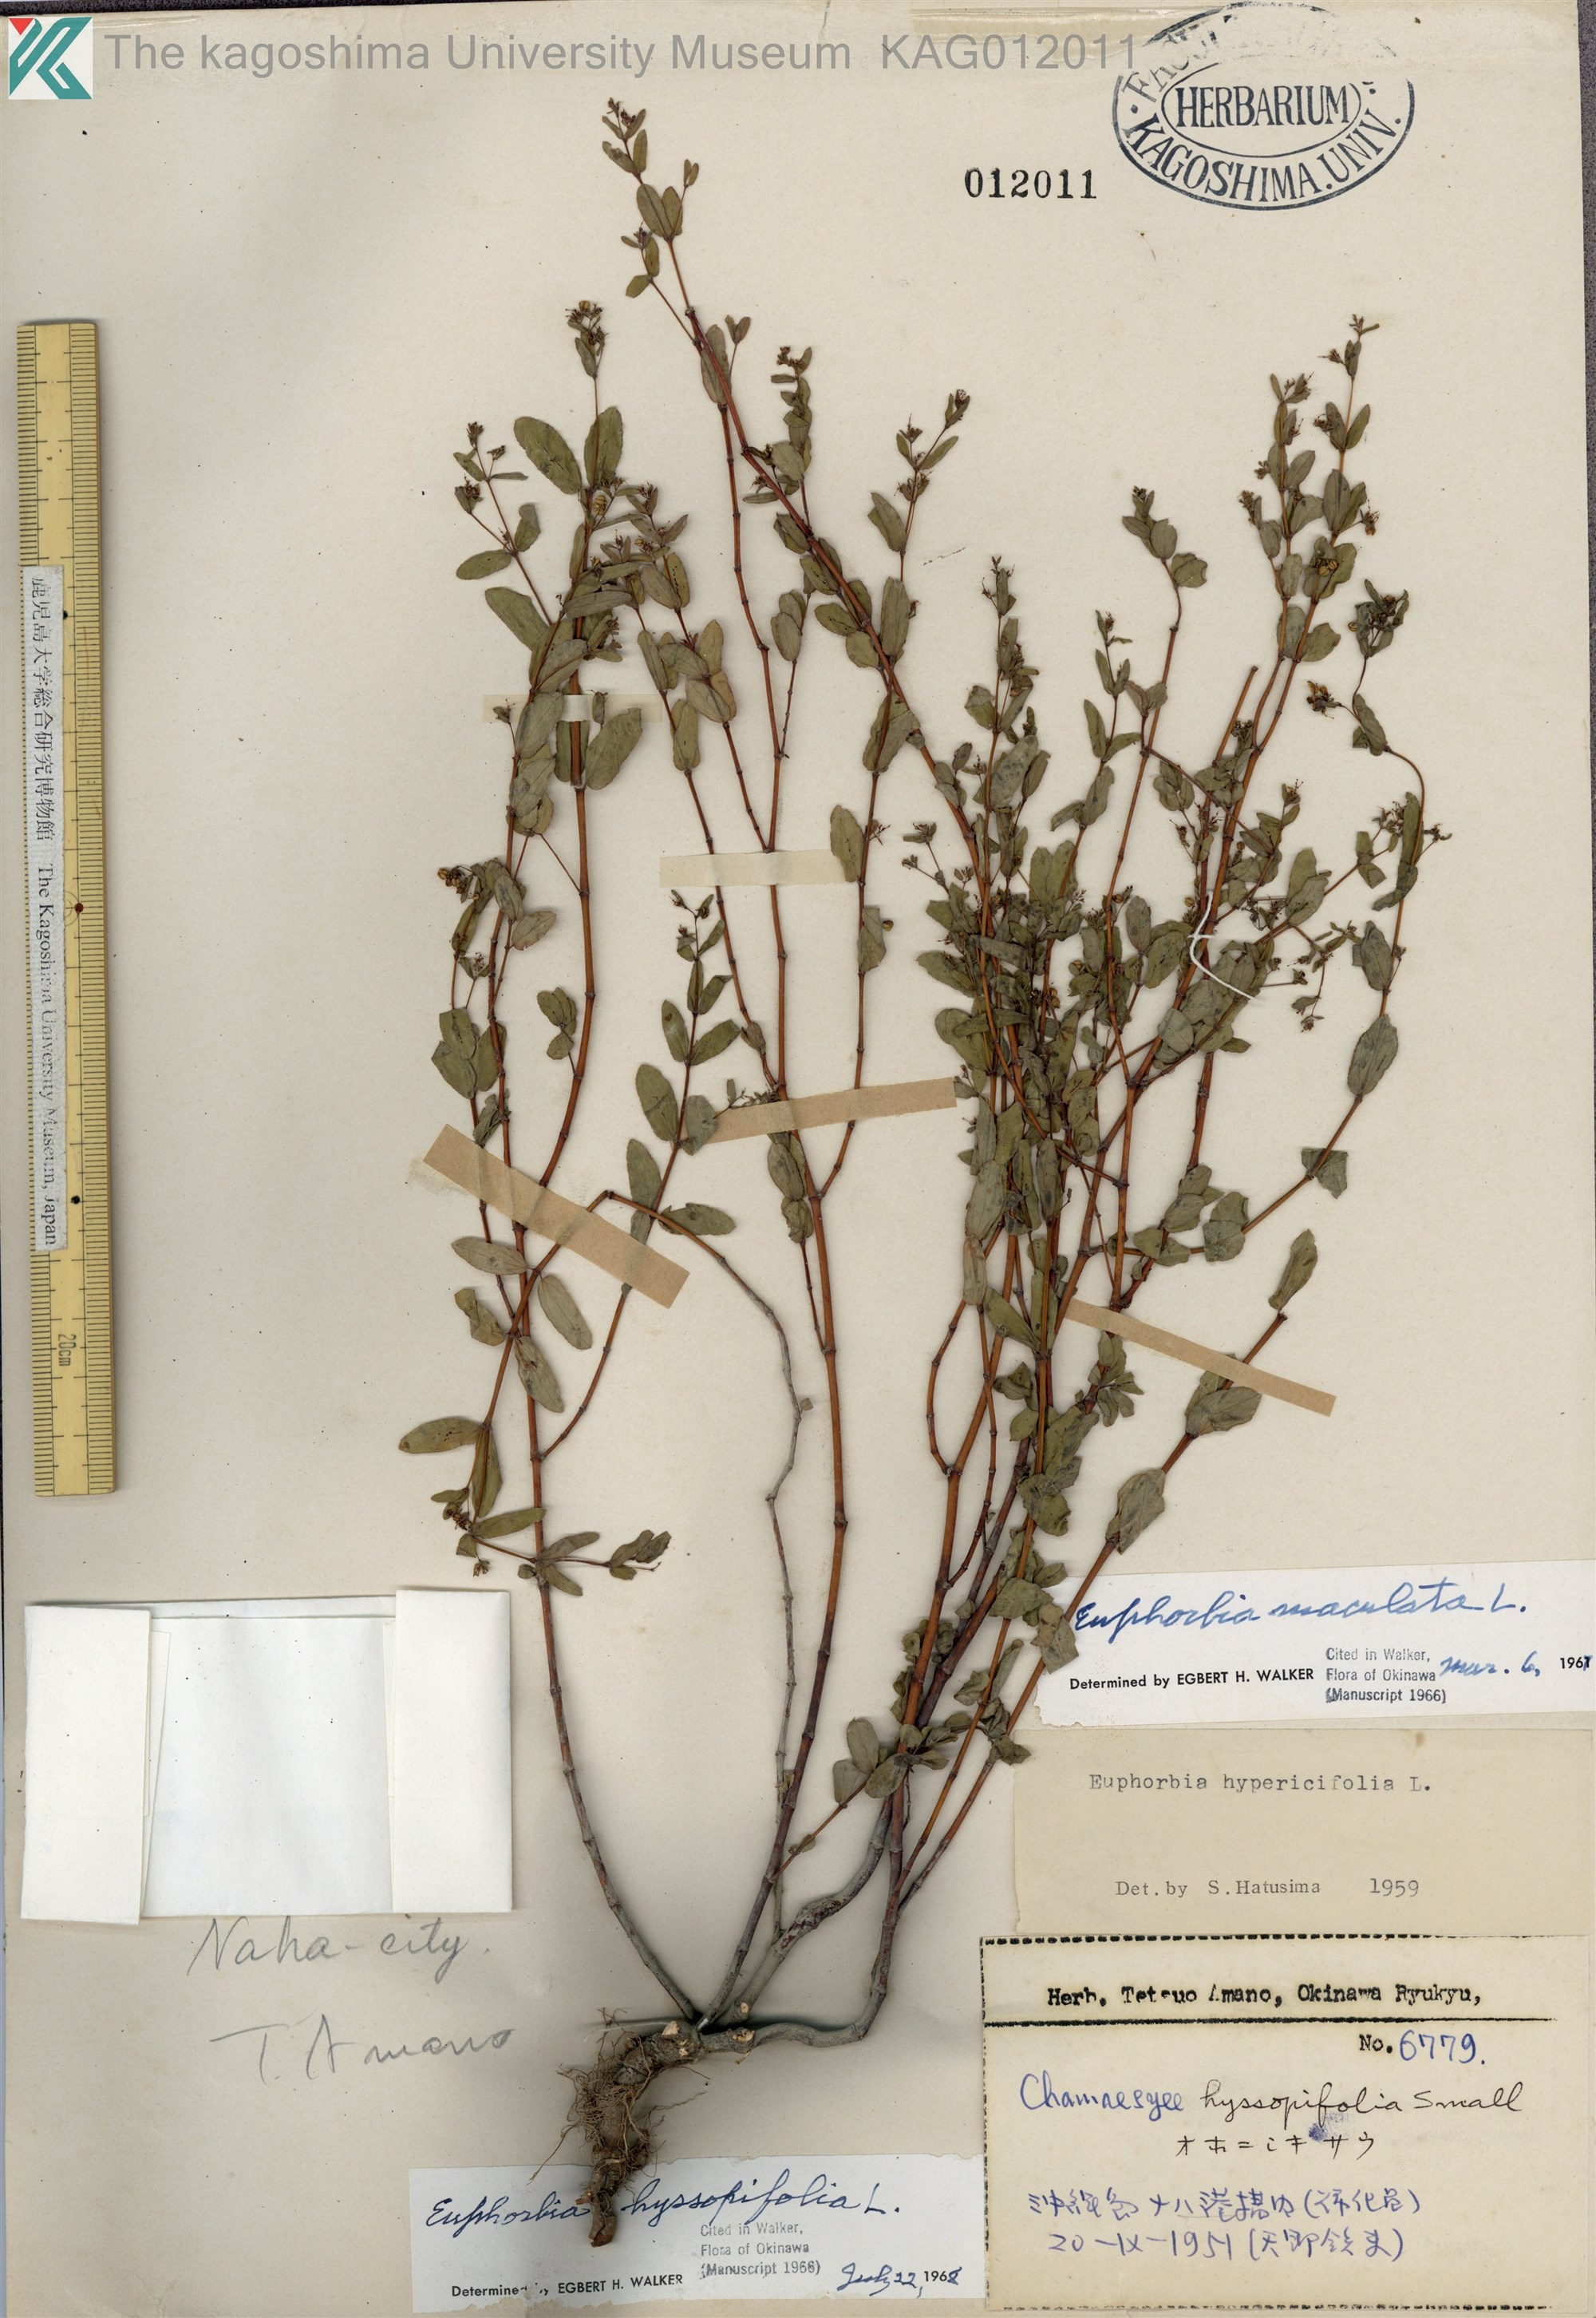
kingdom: Plantae
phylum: Tracheophyta
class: Magnoliopsida
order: Malpighiales
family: Euphorbiaceae
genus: Euphorbia
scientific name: Euphorbia hyssopifolia
